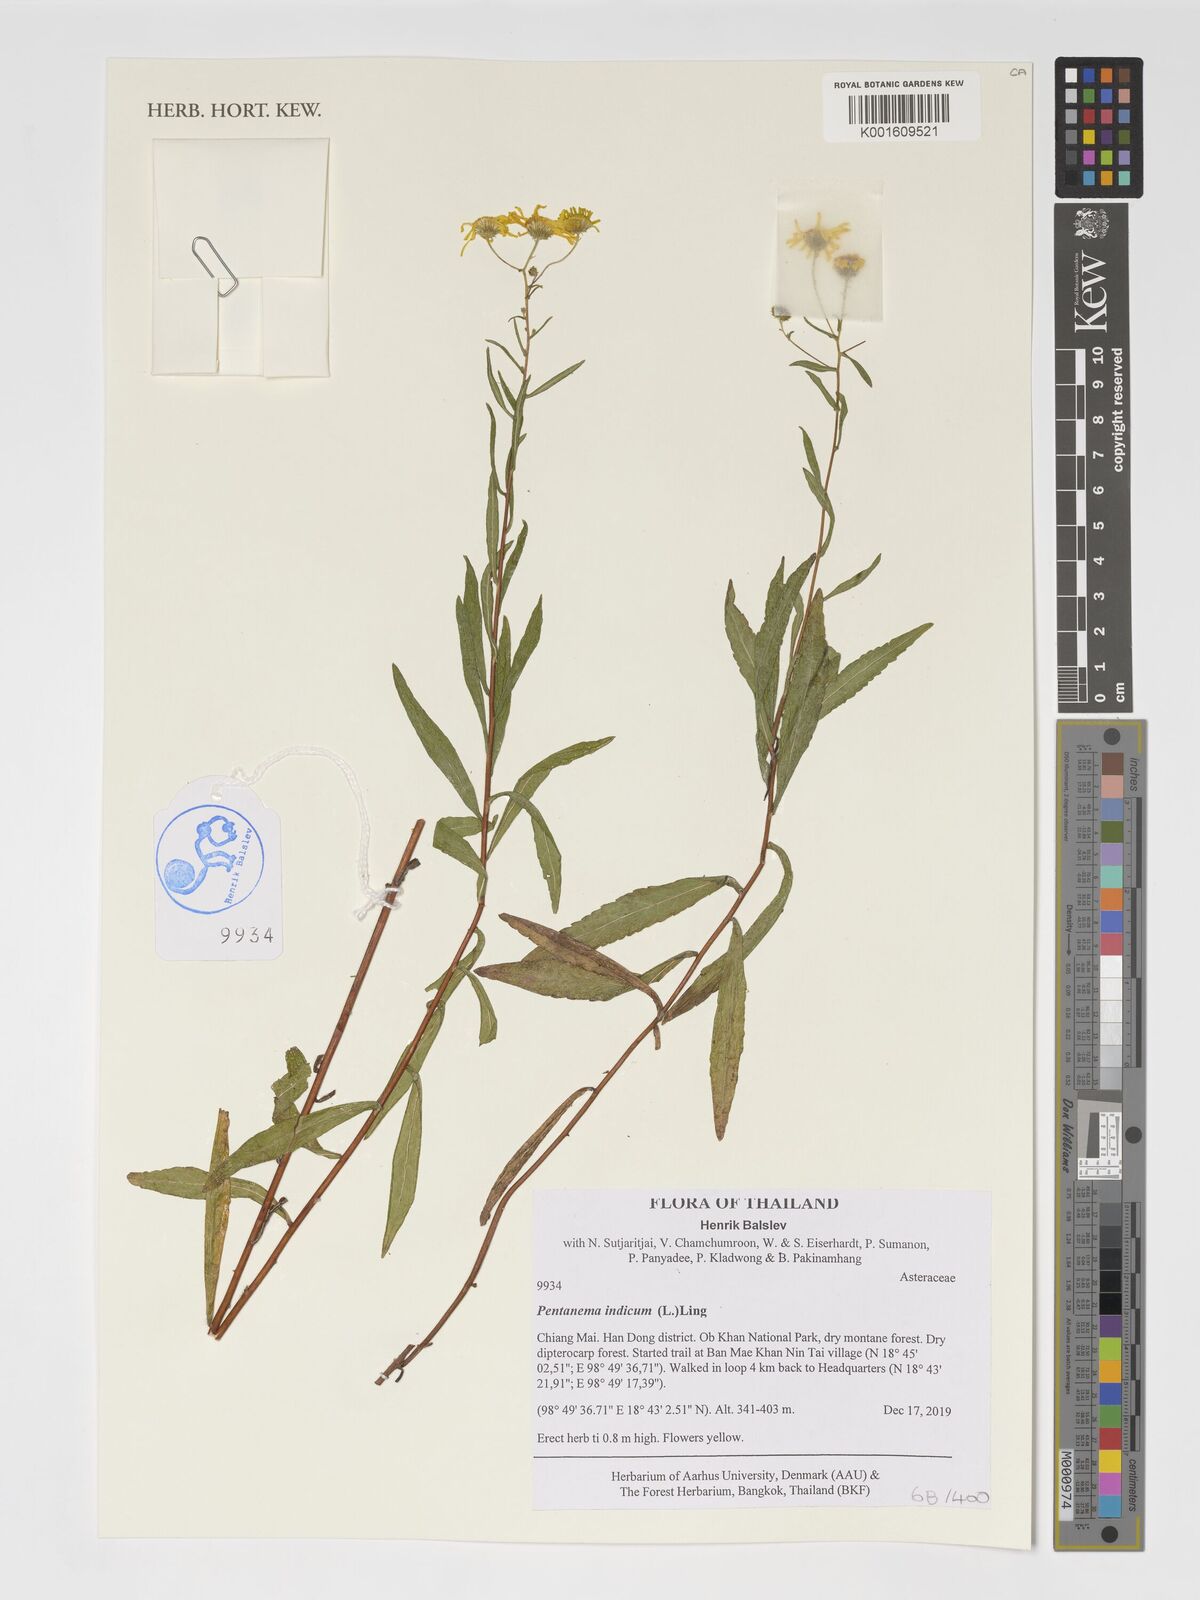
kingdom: Plantae
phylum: Tracheophyta
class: Magnoliopsida
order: Asterales
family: Asteraceae
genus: Vicoa
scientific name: Vicoa indica
